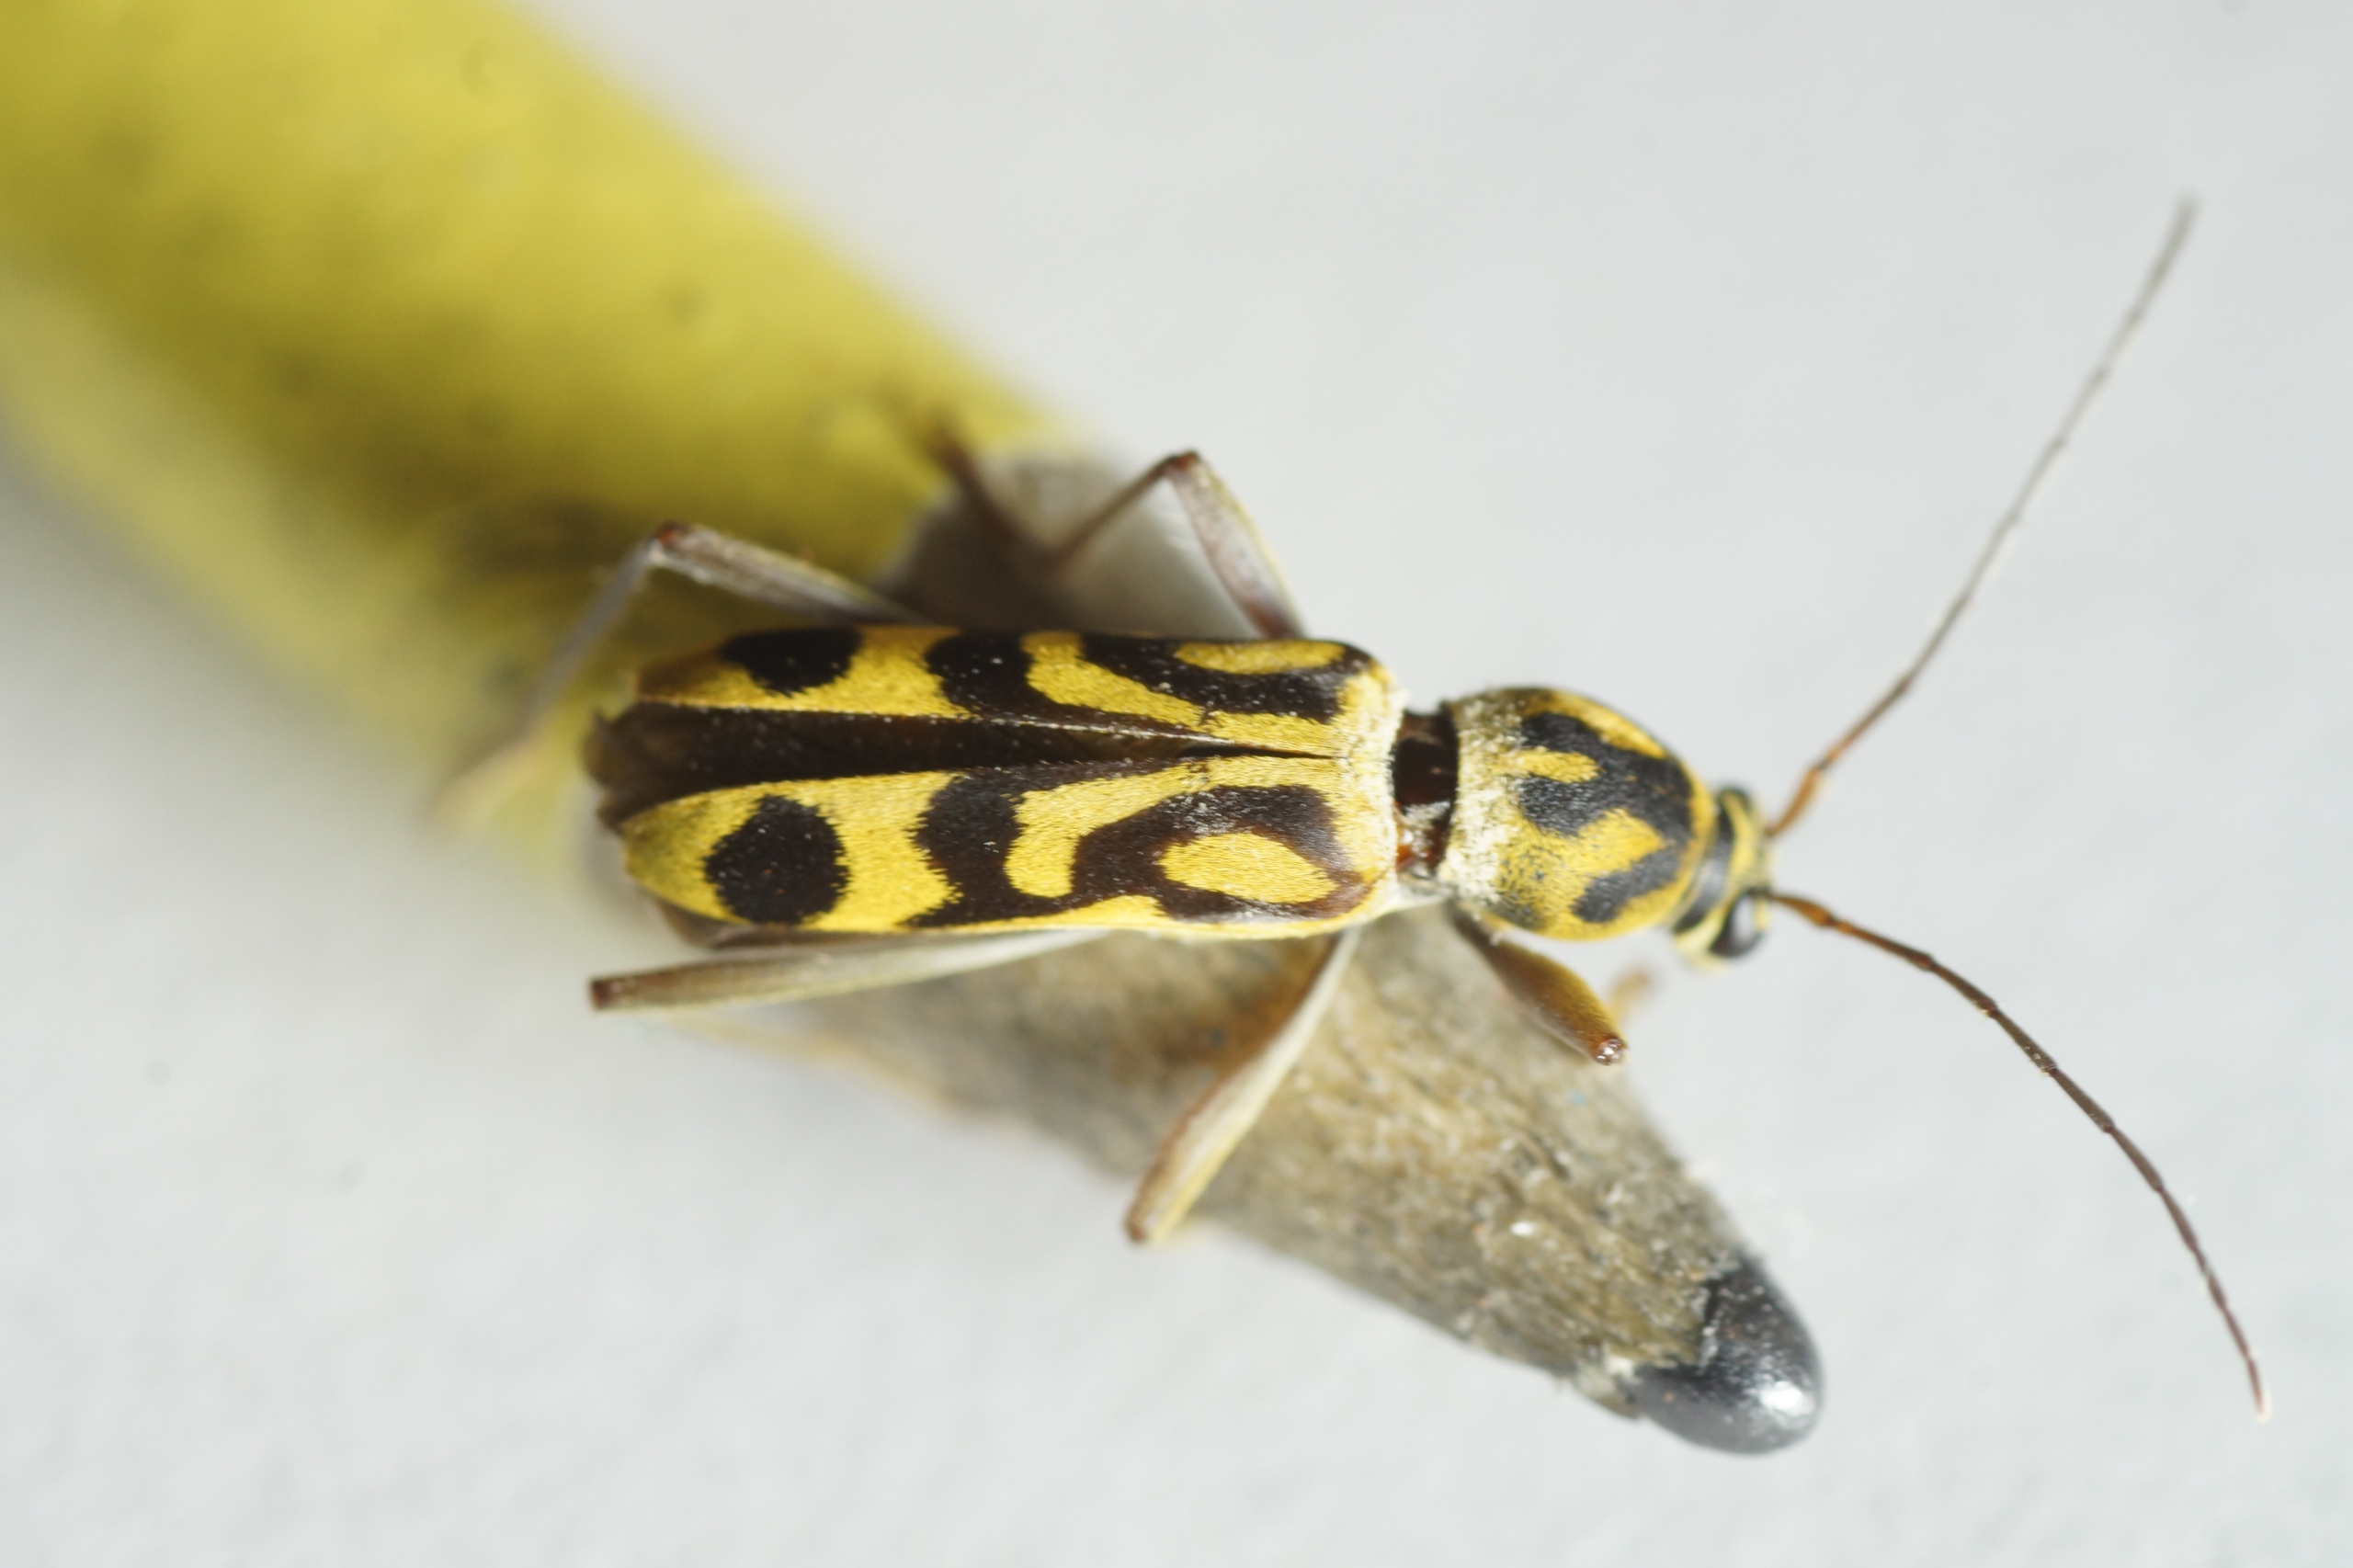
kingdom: Animalia
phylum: Arthropoda
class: Insecta
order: Coleoptera
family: Cerambycidae
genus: Chlorophorus
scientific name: Chlorophorus annularis
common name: Bambusbuk
